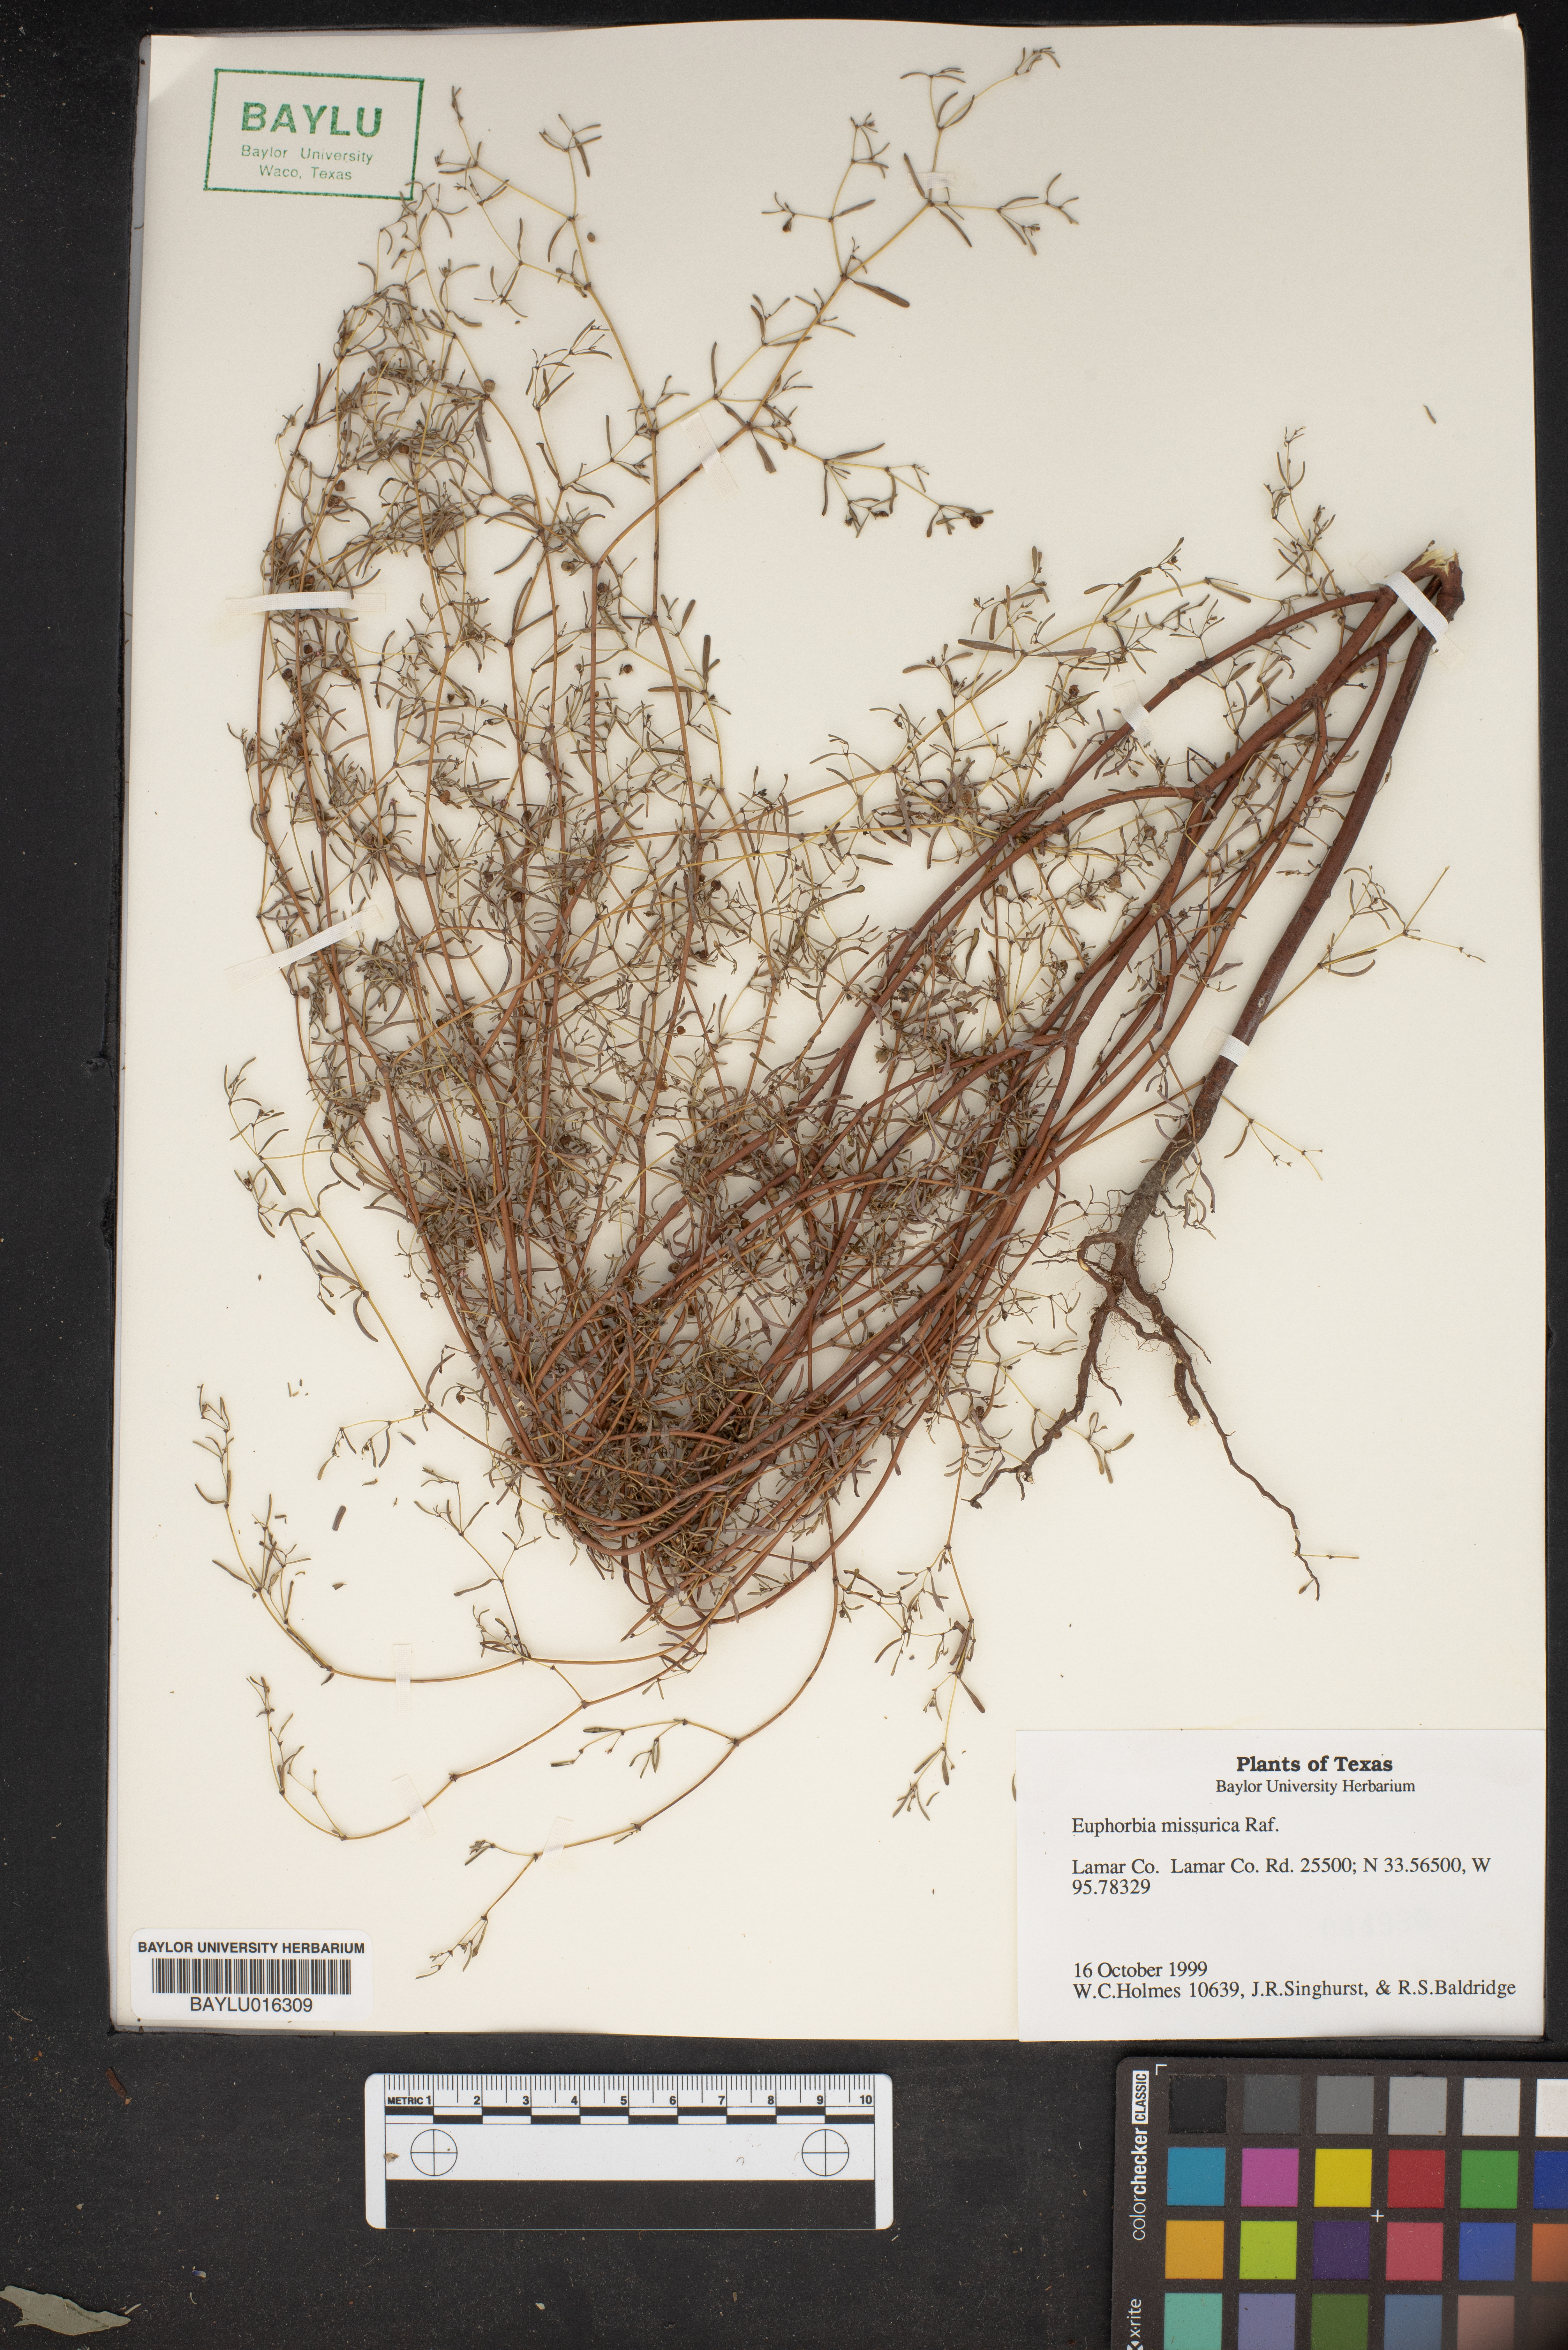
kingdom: Plantae
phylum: Tracheophyta
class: Magnoliopsida
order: Malpighiales
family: Euphorbiaceae
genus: Euphorbia
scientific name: Euphorbia missurica
